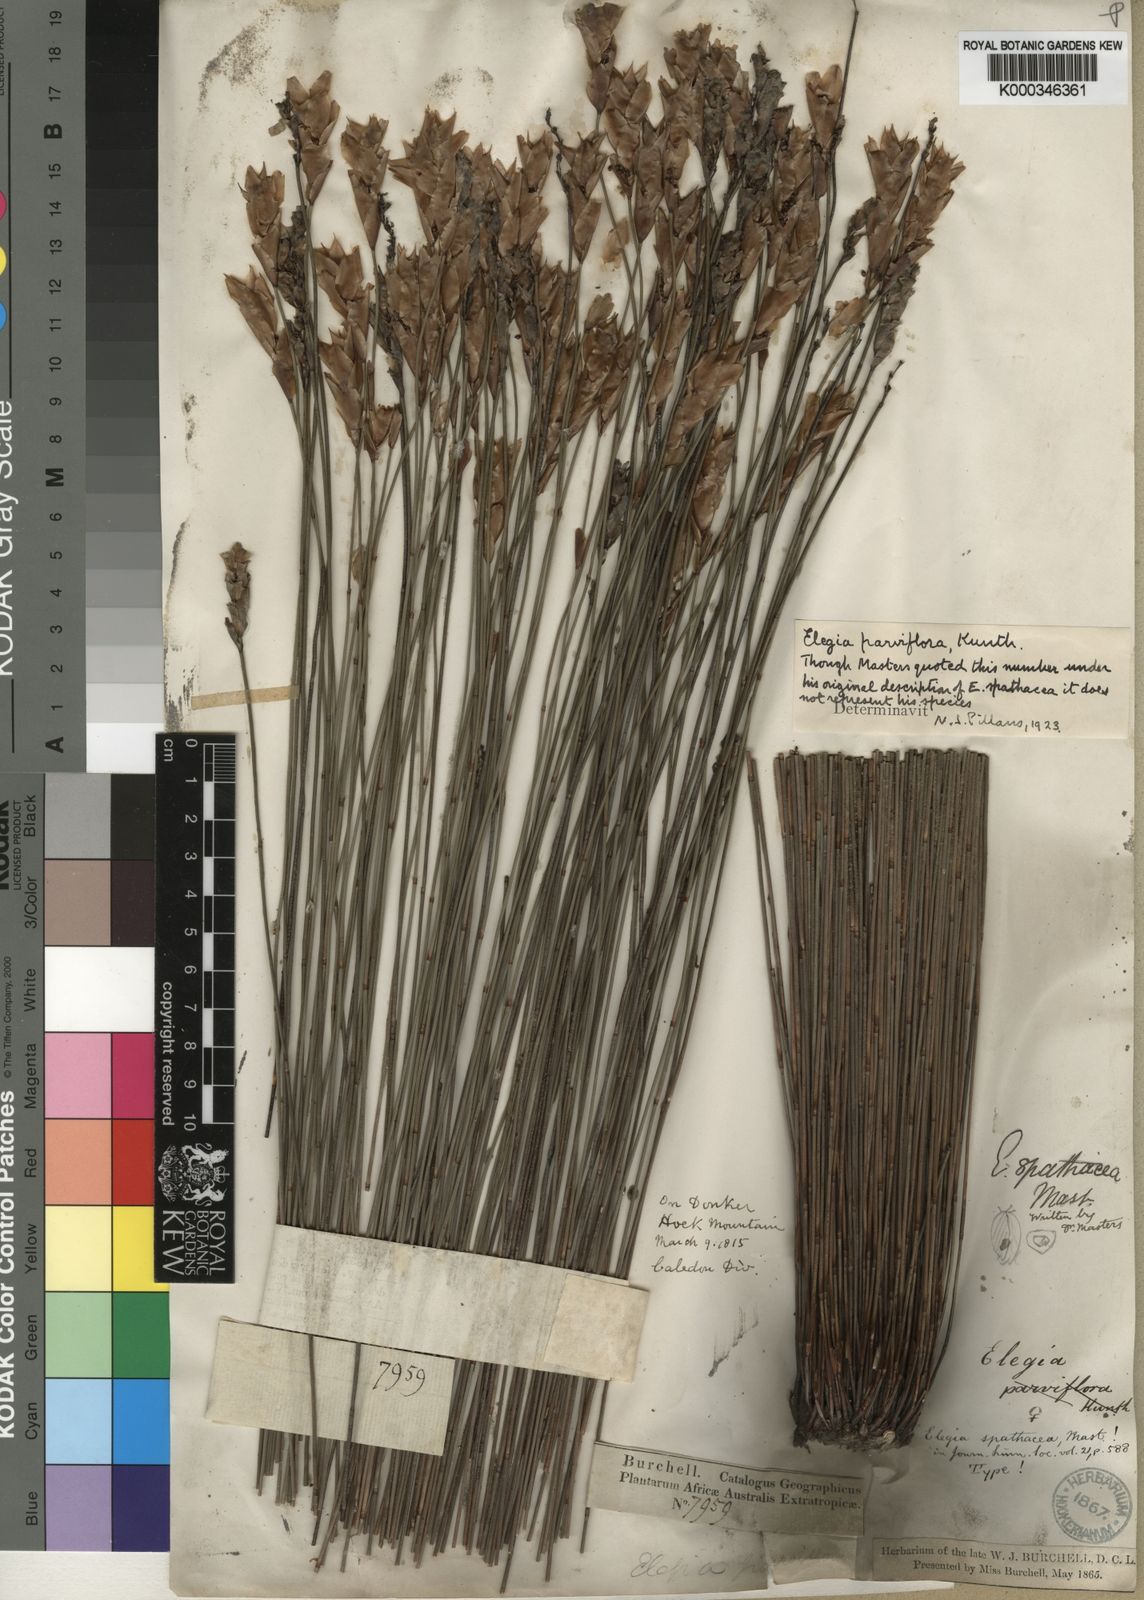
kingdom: Plantae
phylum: Tracheophyta
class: Liliopsida
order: Poales
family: Restionaceae
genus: Elegia
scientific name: Elegia spathacea
